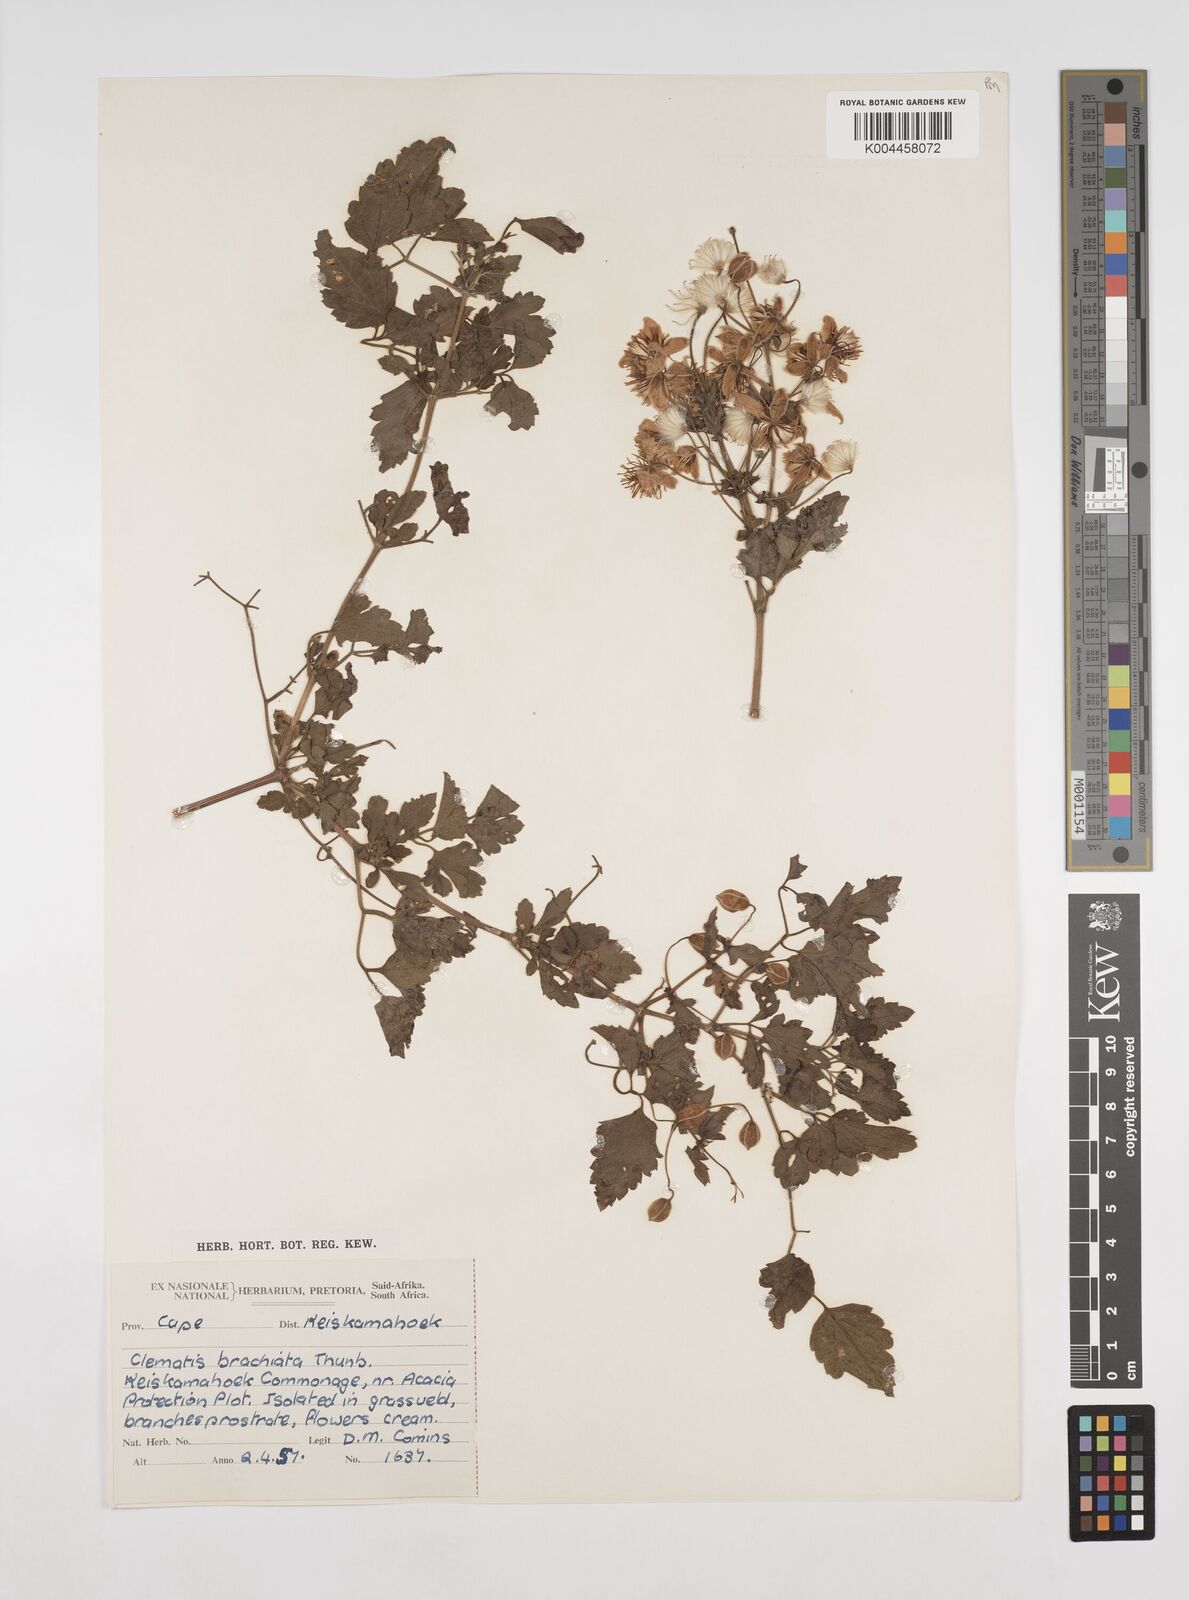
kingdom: Plantae
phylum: Tracheophyta
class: Magnoliopsida
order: Ranunculales
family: Ranunculaceae
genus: Clematis
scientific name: Clematis brachiata
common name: Traveler's-joy
